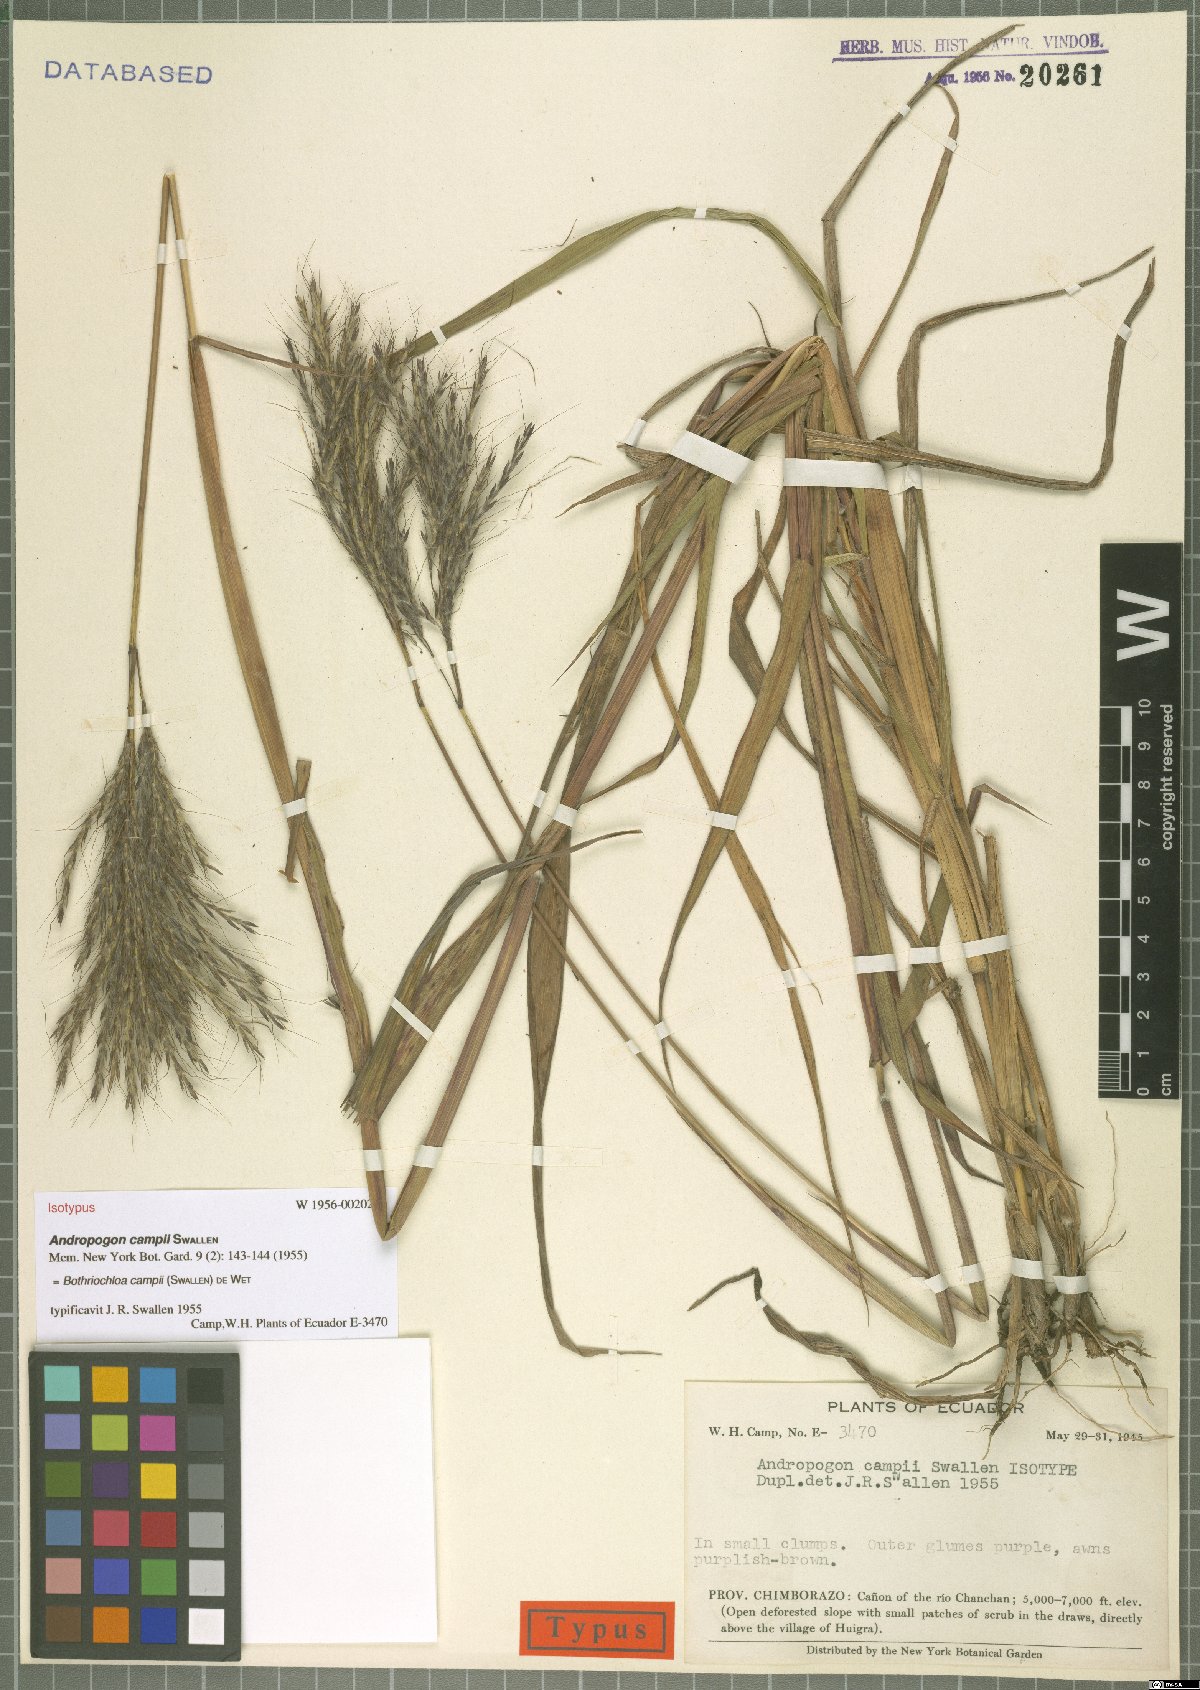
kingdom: Plantae
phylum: Tracheophyta
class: Liliopsida
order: Poales
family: Poaceae
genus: Bothriochloa
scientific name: Bothriochloa campii
